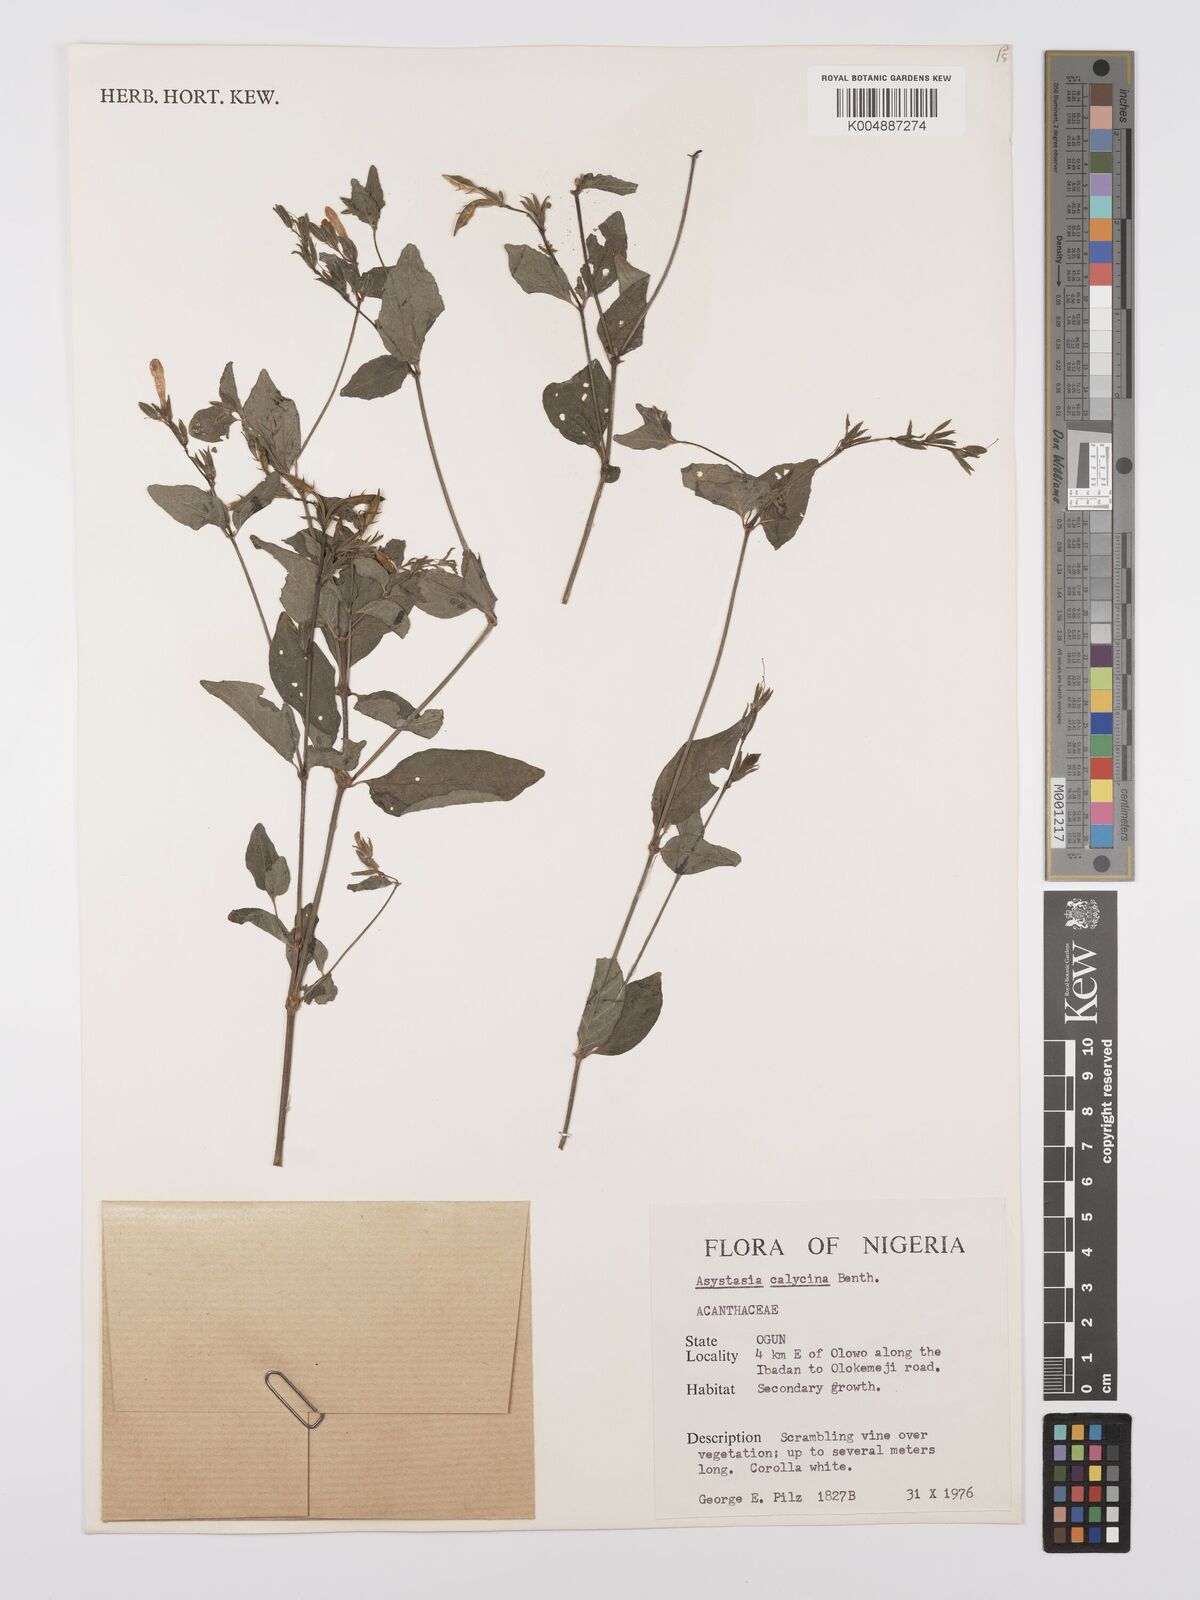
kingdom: Plantae
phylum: Tracheophyta
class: Magnoliopsida
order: Lamiales
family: Acanthaceae
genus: Asystasia
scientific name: Asystasia buettneri
